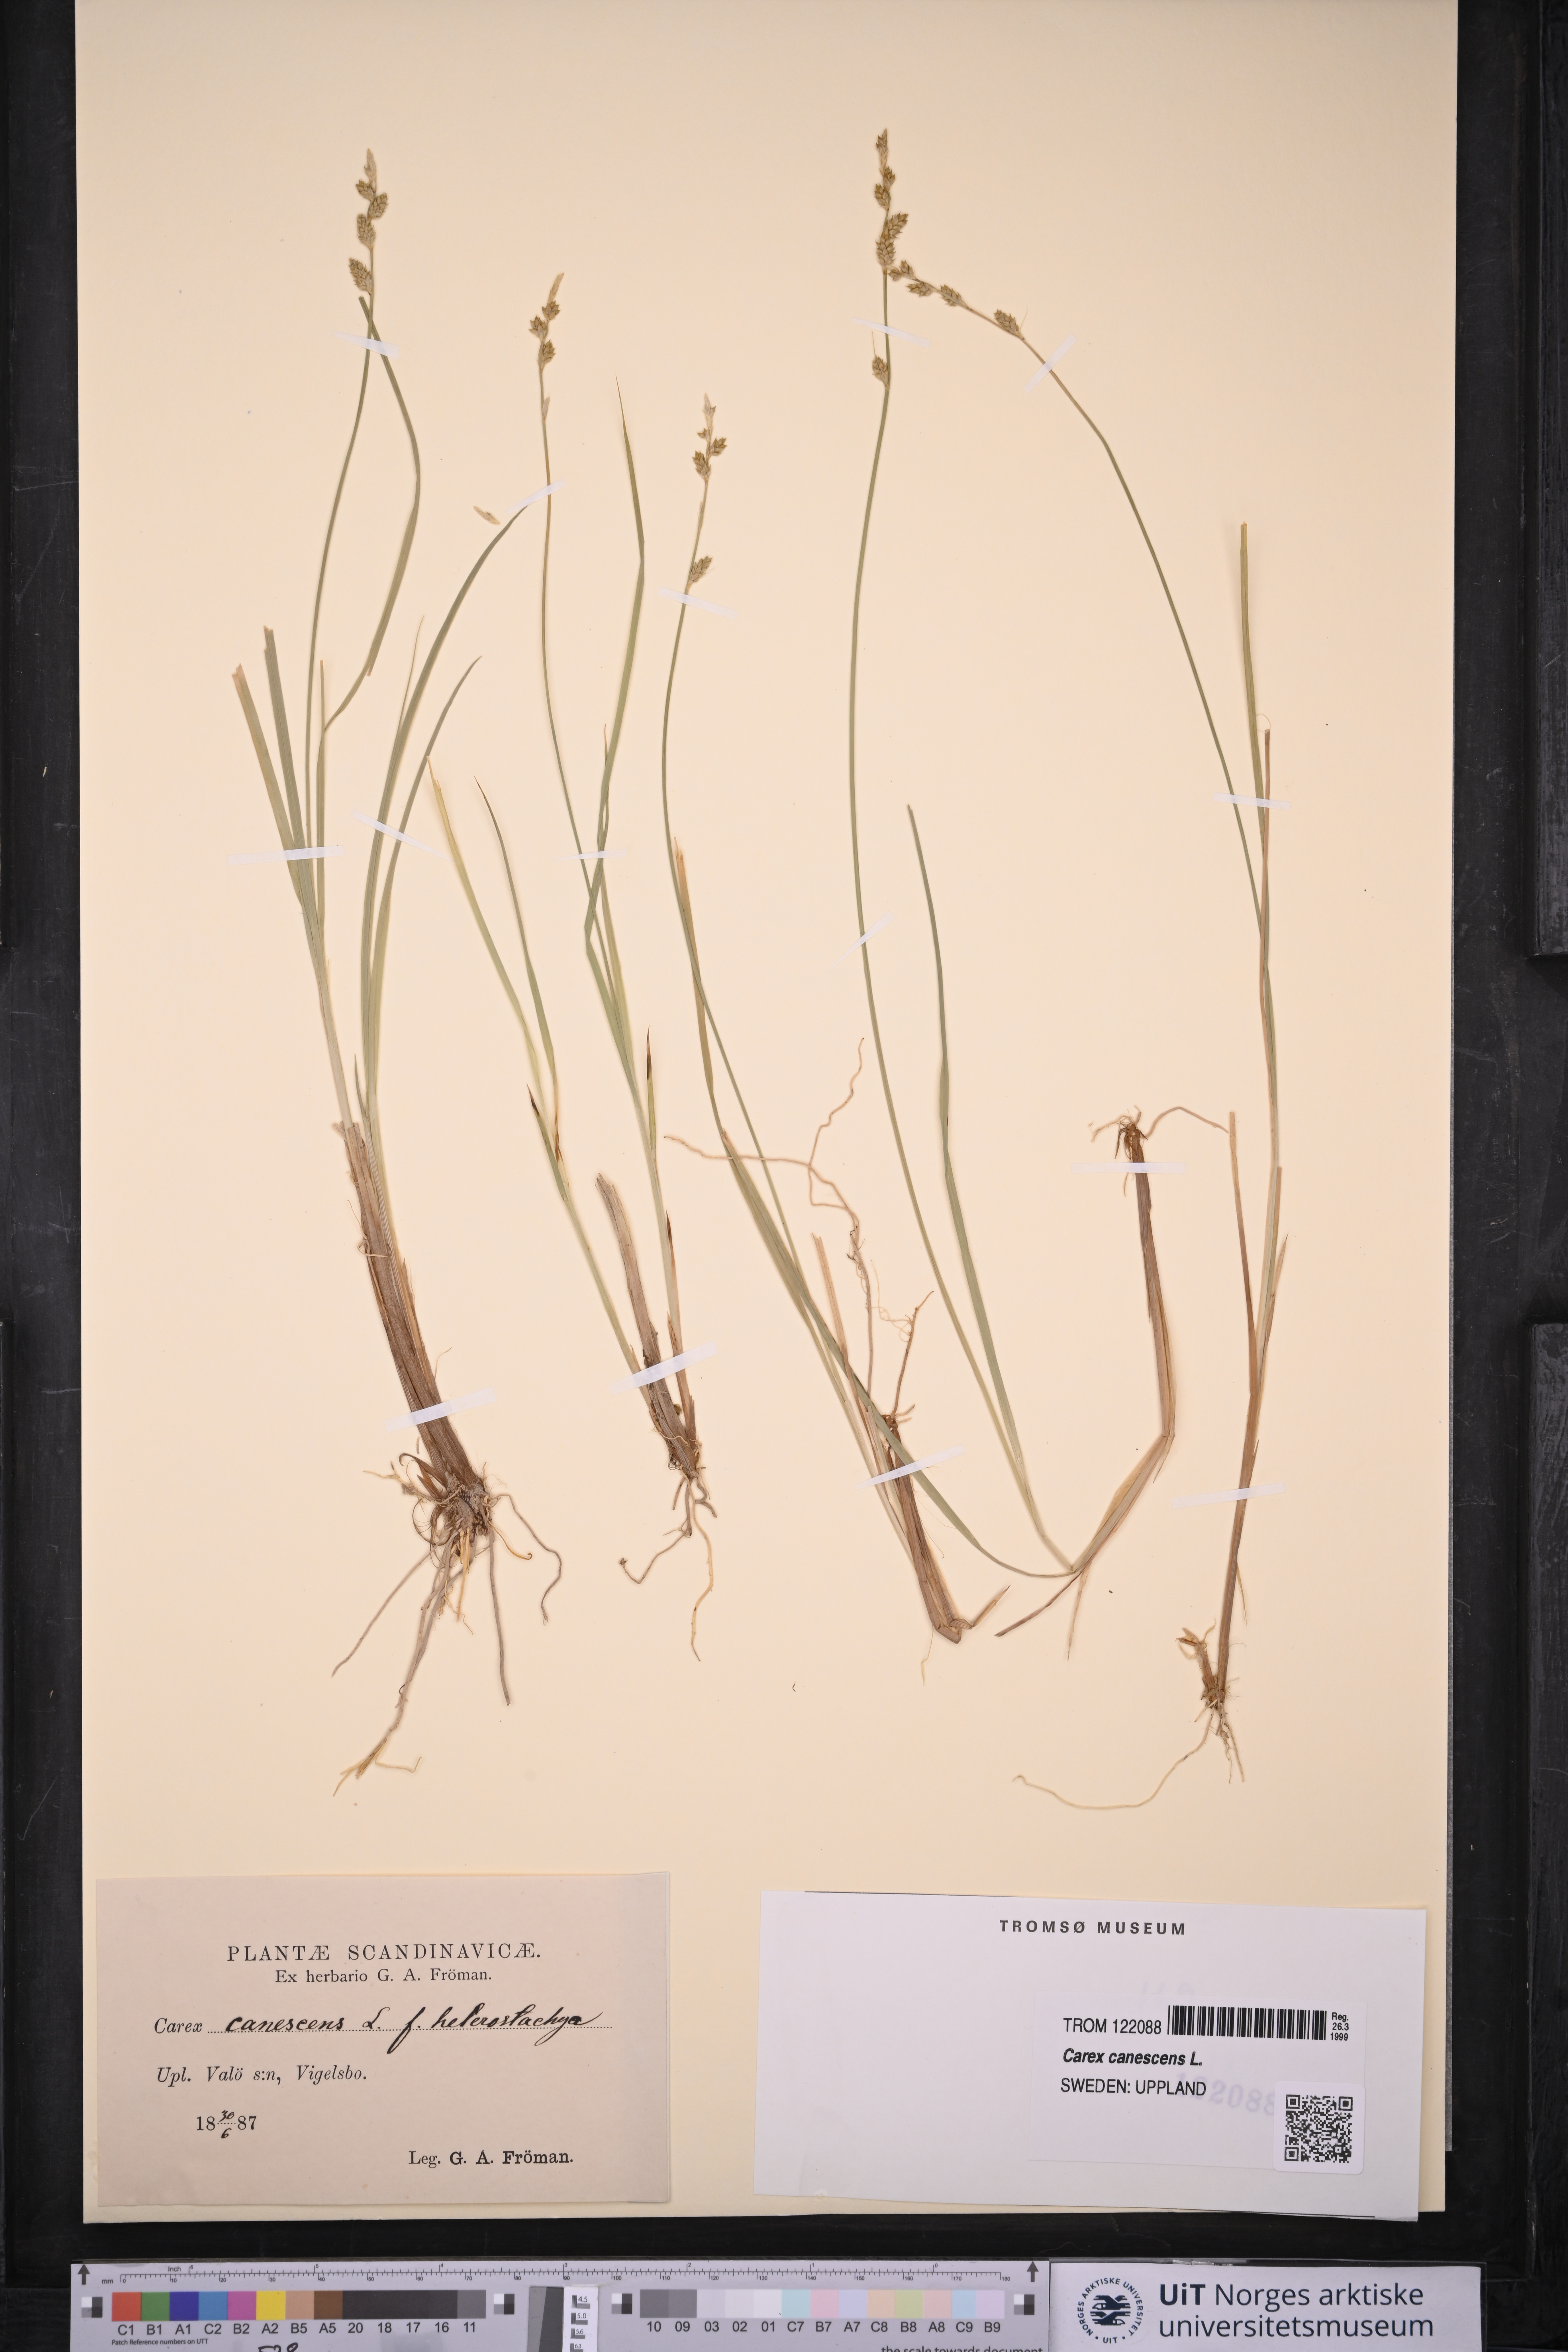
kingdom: Plantae
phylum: Tracheophyta
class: Liliopsida
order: Poales
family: Cyperaceae
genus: Carex
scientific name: Carex canescens
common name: White sedge
